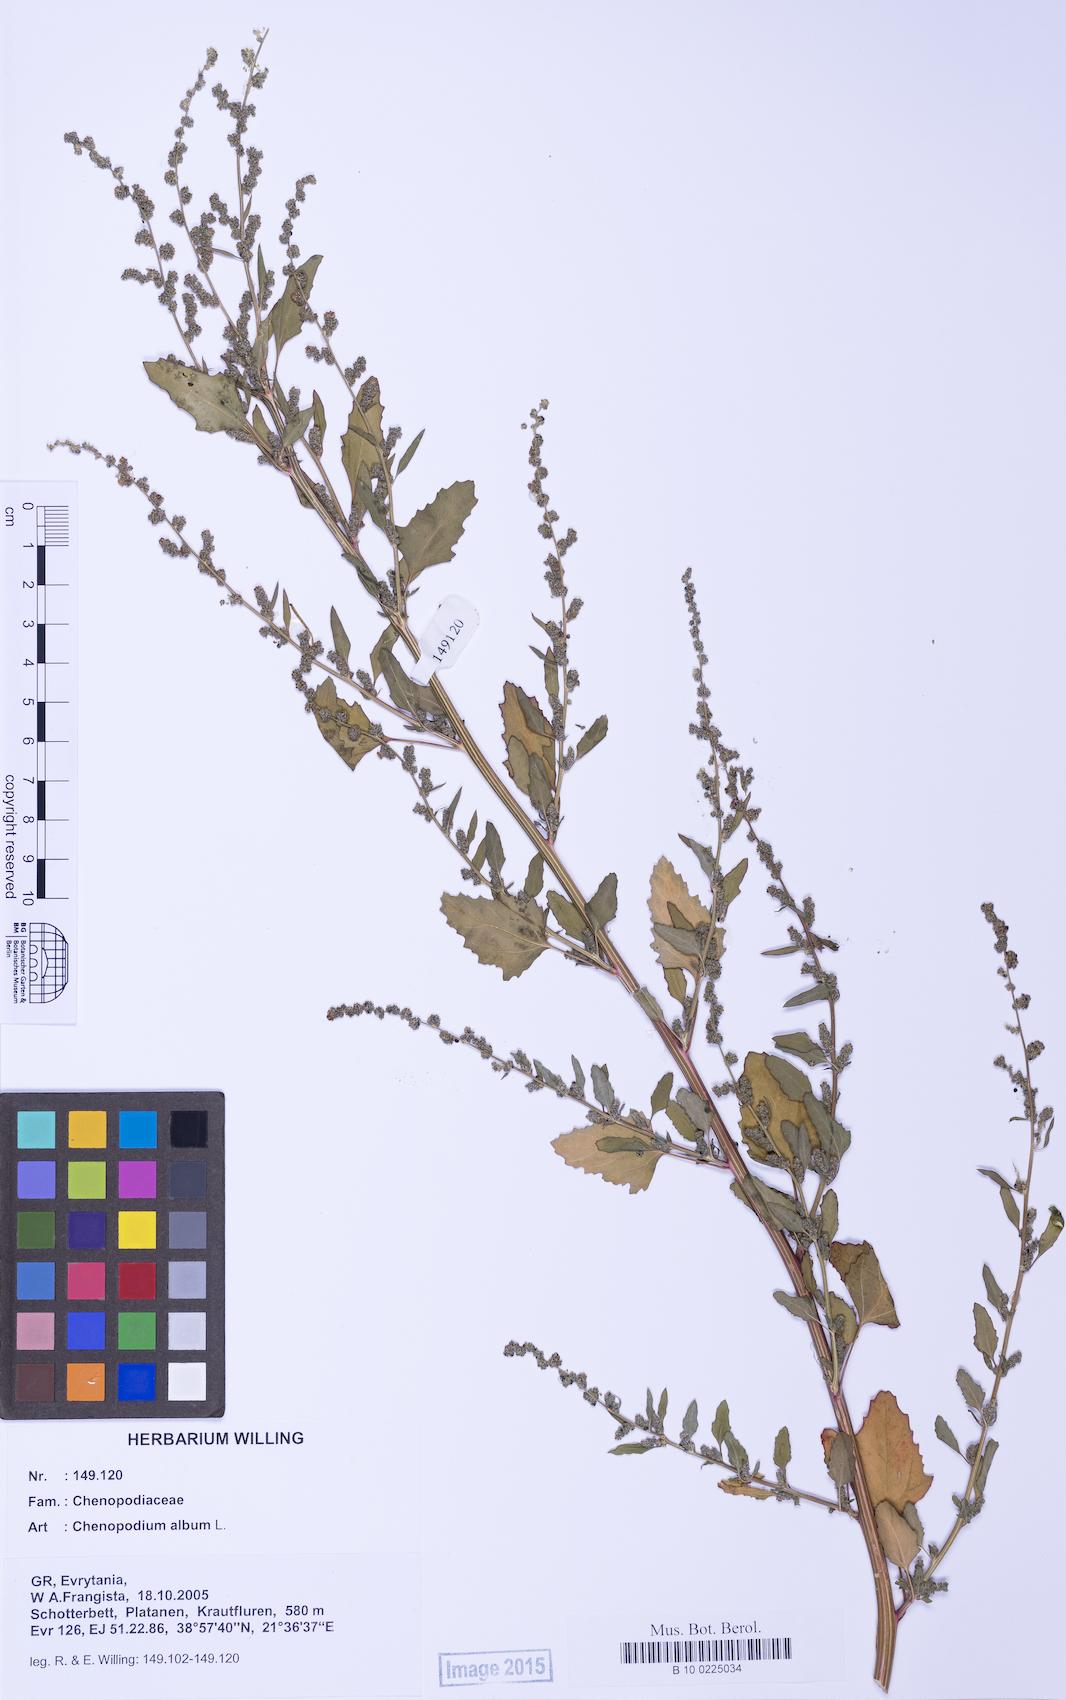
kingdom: Plantae
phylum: Tracheophyta
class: Magnoliopsida
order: Caryophyllales
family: Amaranthaceae
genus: Chenopodium
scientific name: Chenopodium album
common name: Fat-hen
